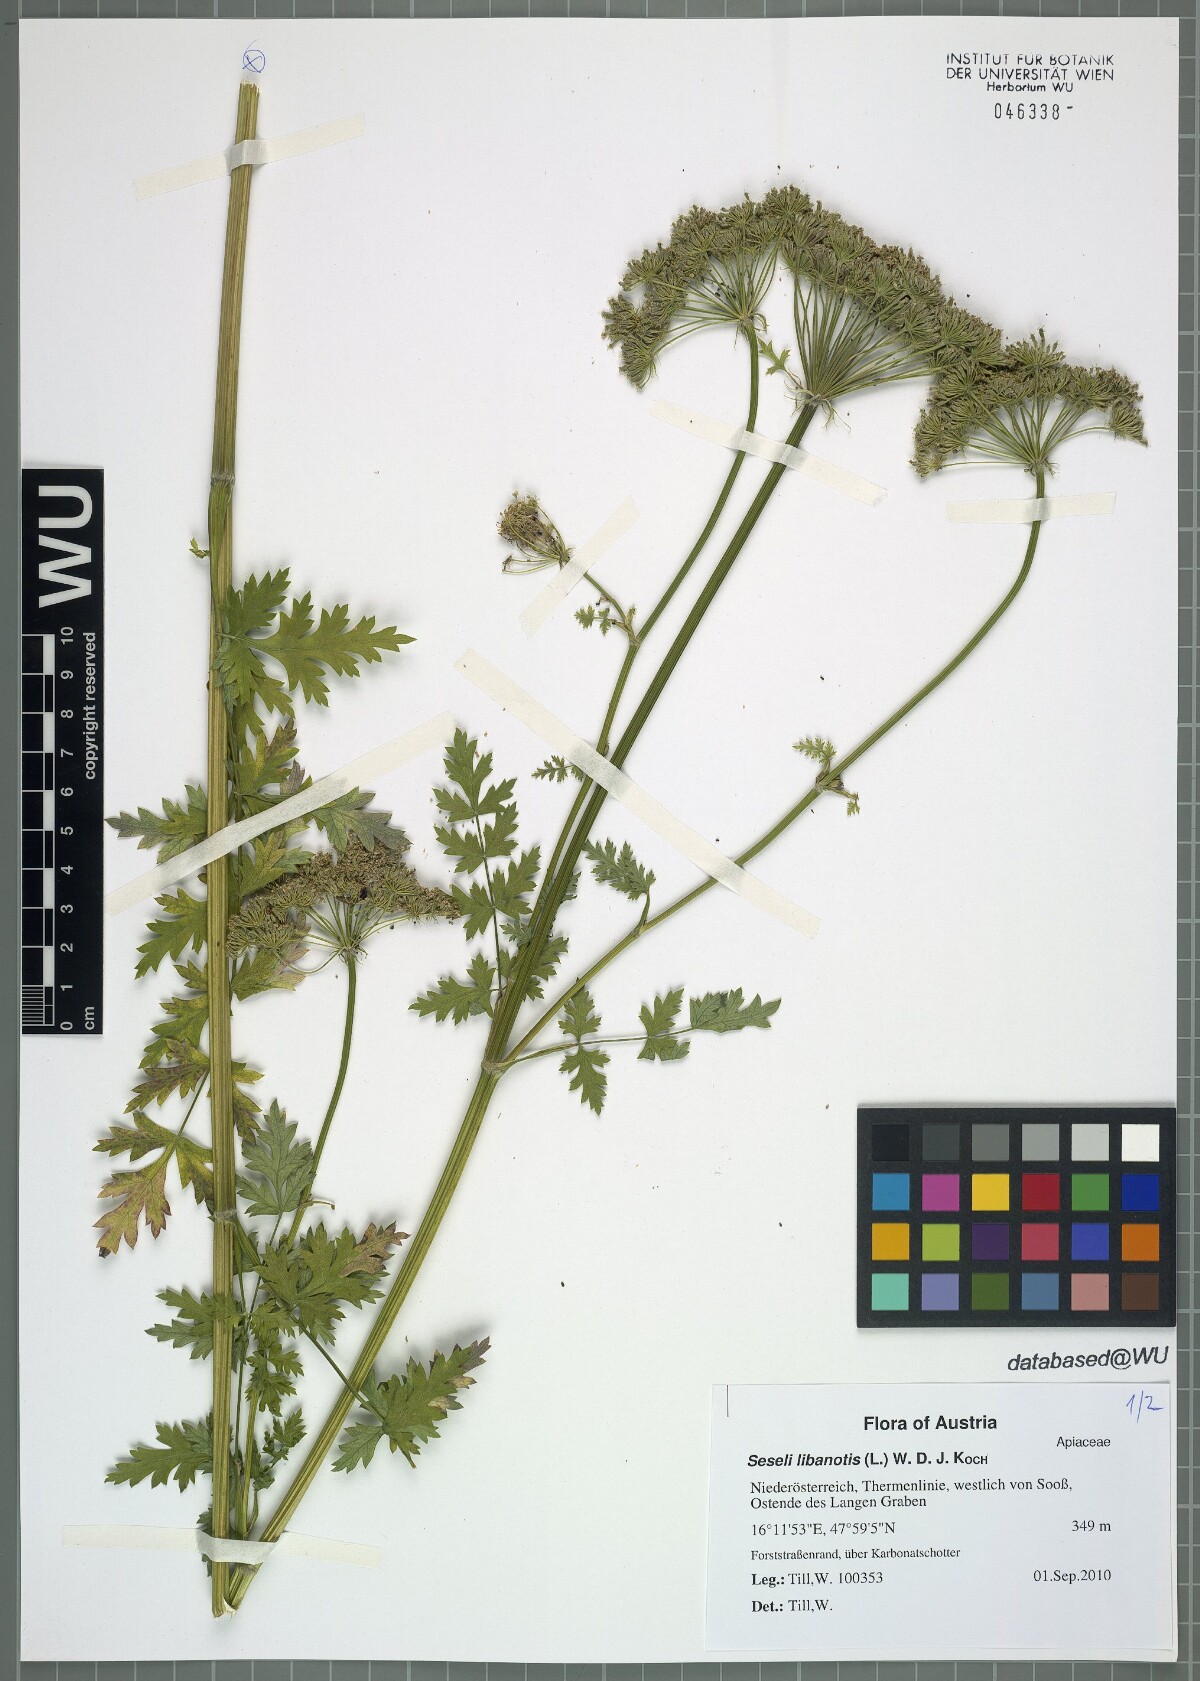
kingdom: Plantae
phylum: Tracheophyta
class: Magnoliopsida
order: Apiales
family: Apiaceae
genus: Seseli
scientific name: Seseli libanotis
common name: Mooncarrot
